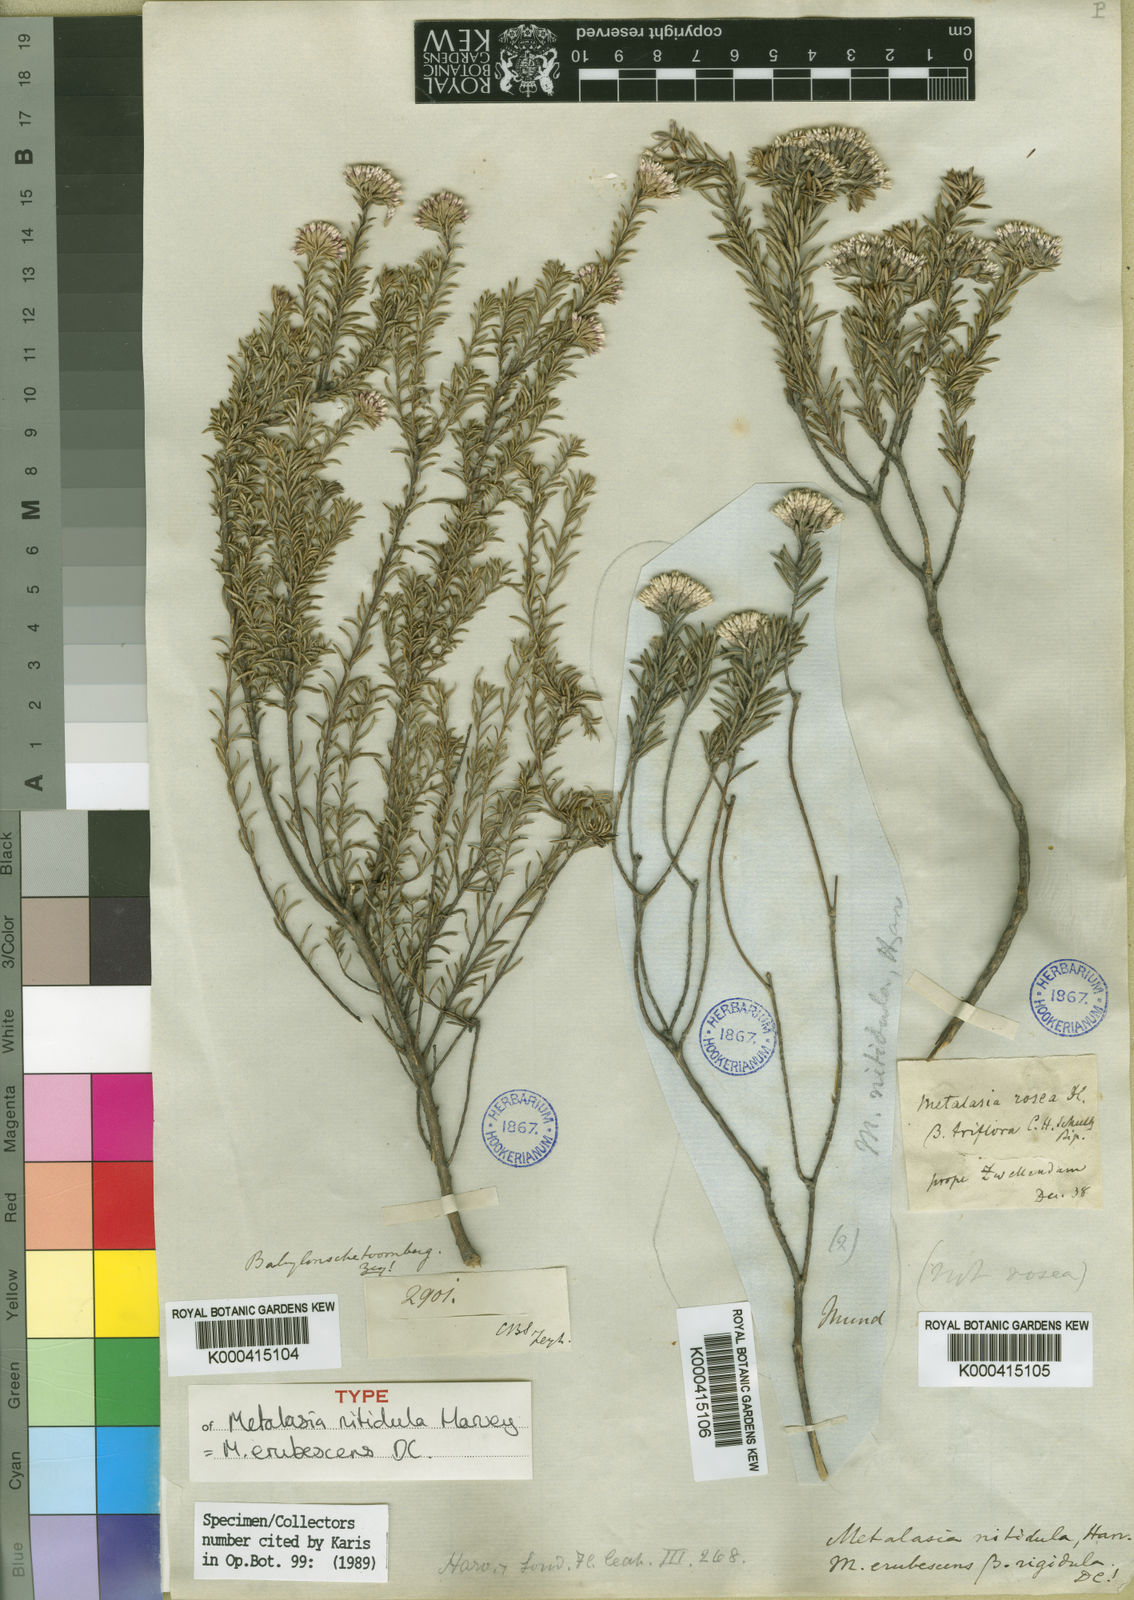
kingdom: Plantae
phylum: Tracheophyta
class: Magnoliopsida
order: Asterales
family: Asteraceae
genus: Metalasia
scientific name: Metalasia erubescens
